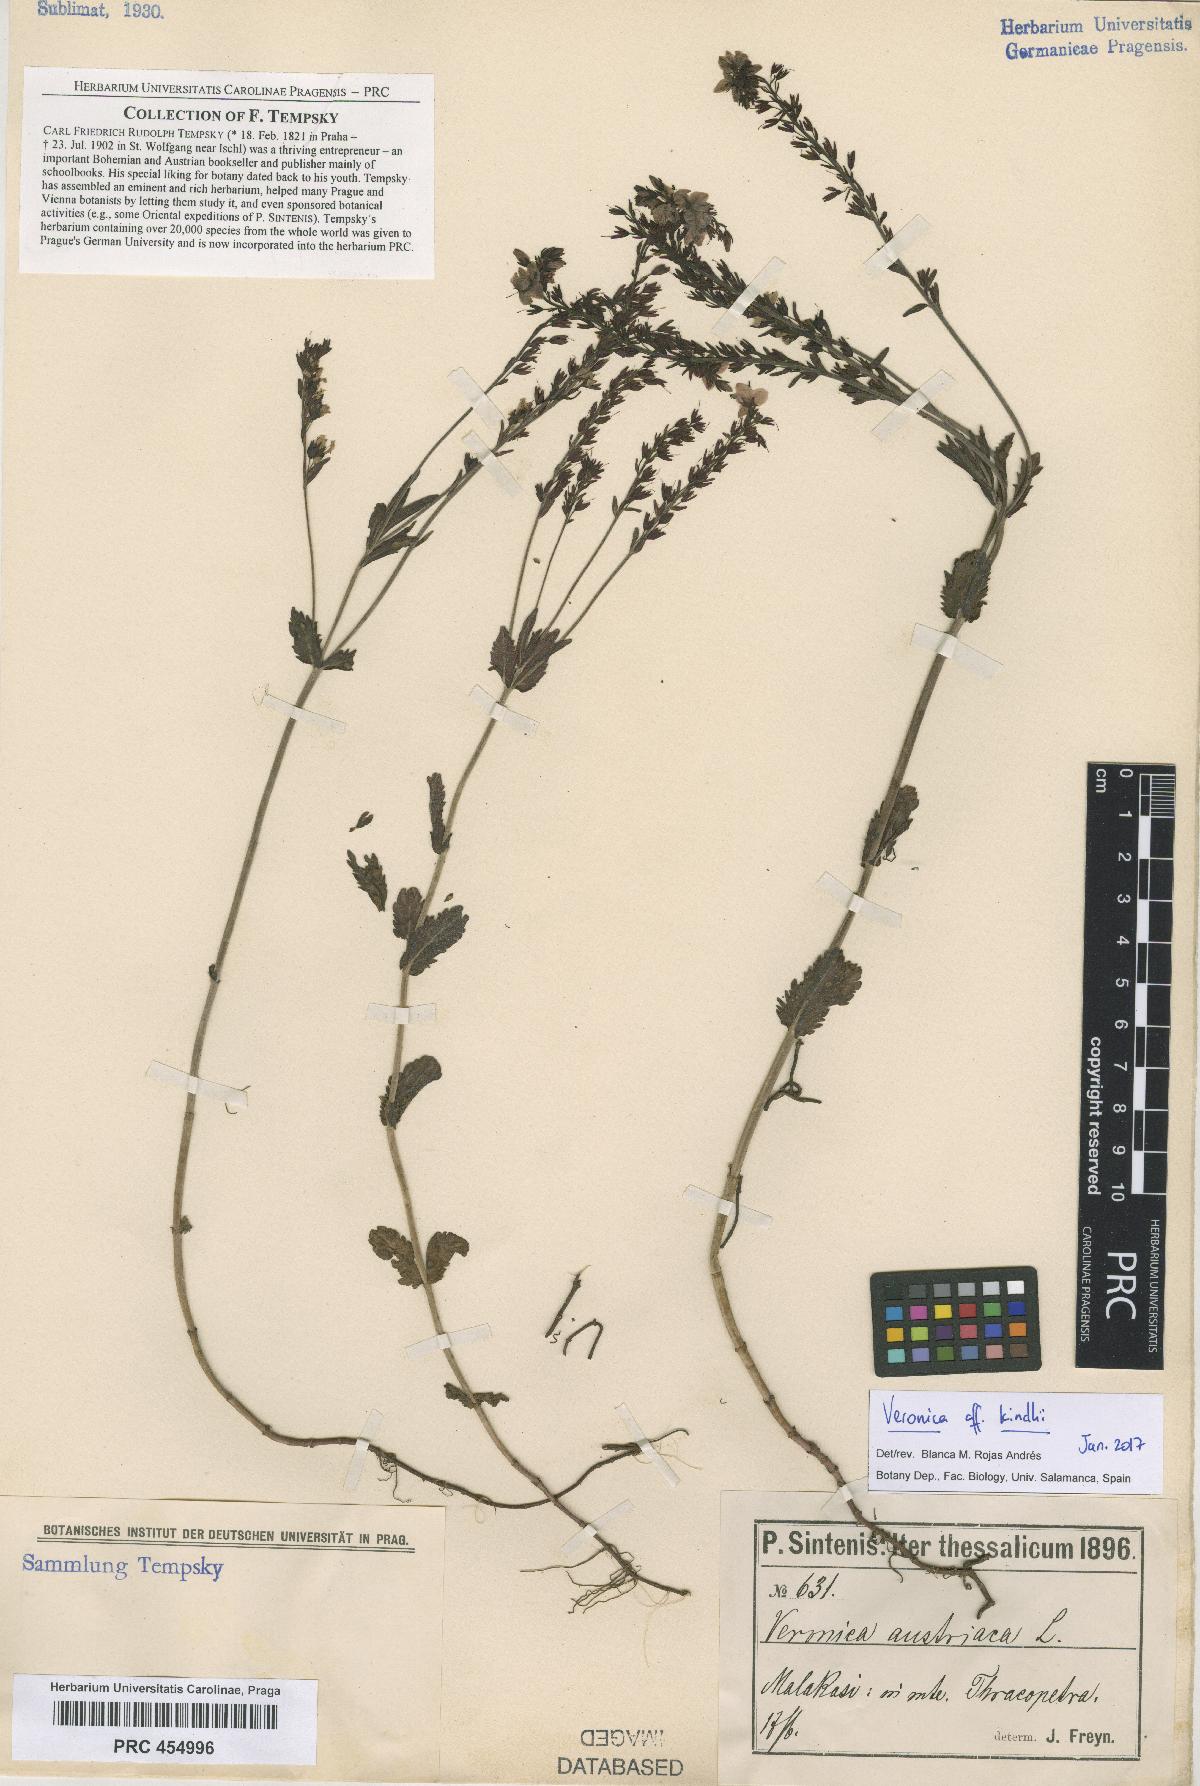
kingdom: Plantae
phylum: Tracheophyta
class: Magnoliopsida
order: Lamiales
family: Plantaginaceae
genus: Veronica
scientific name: Veronica orsiniana
